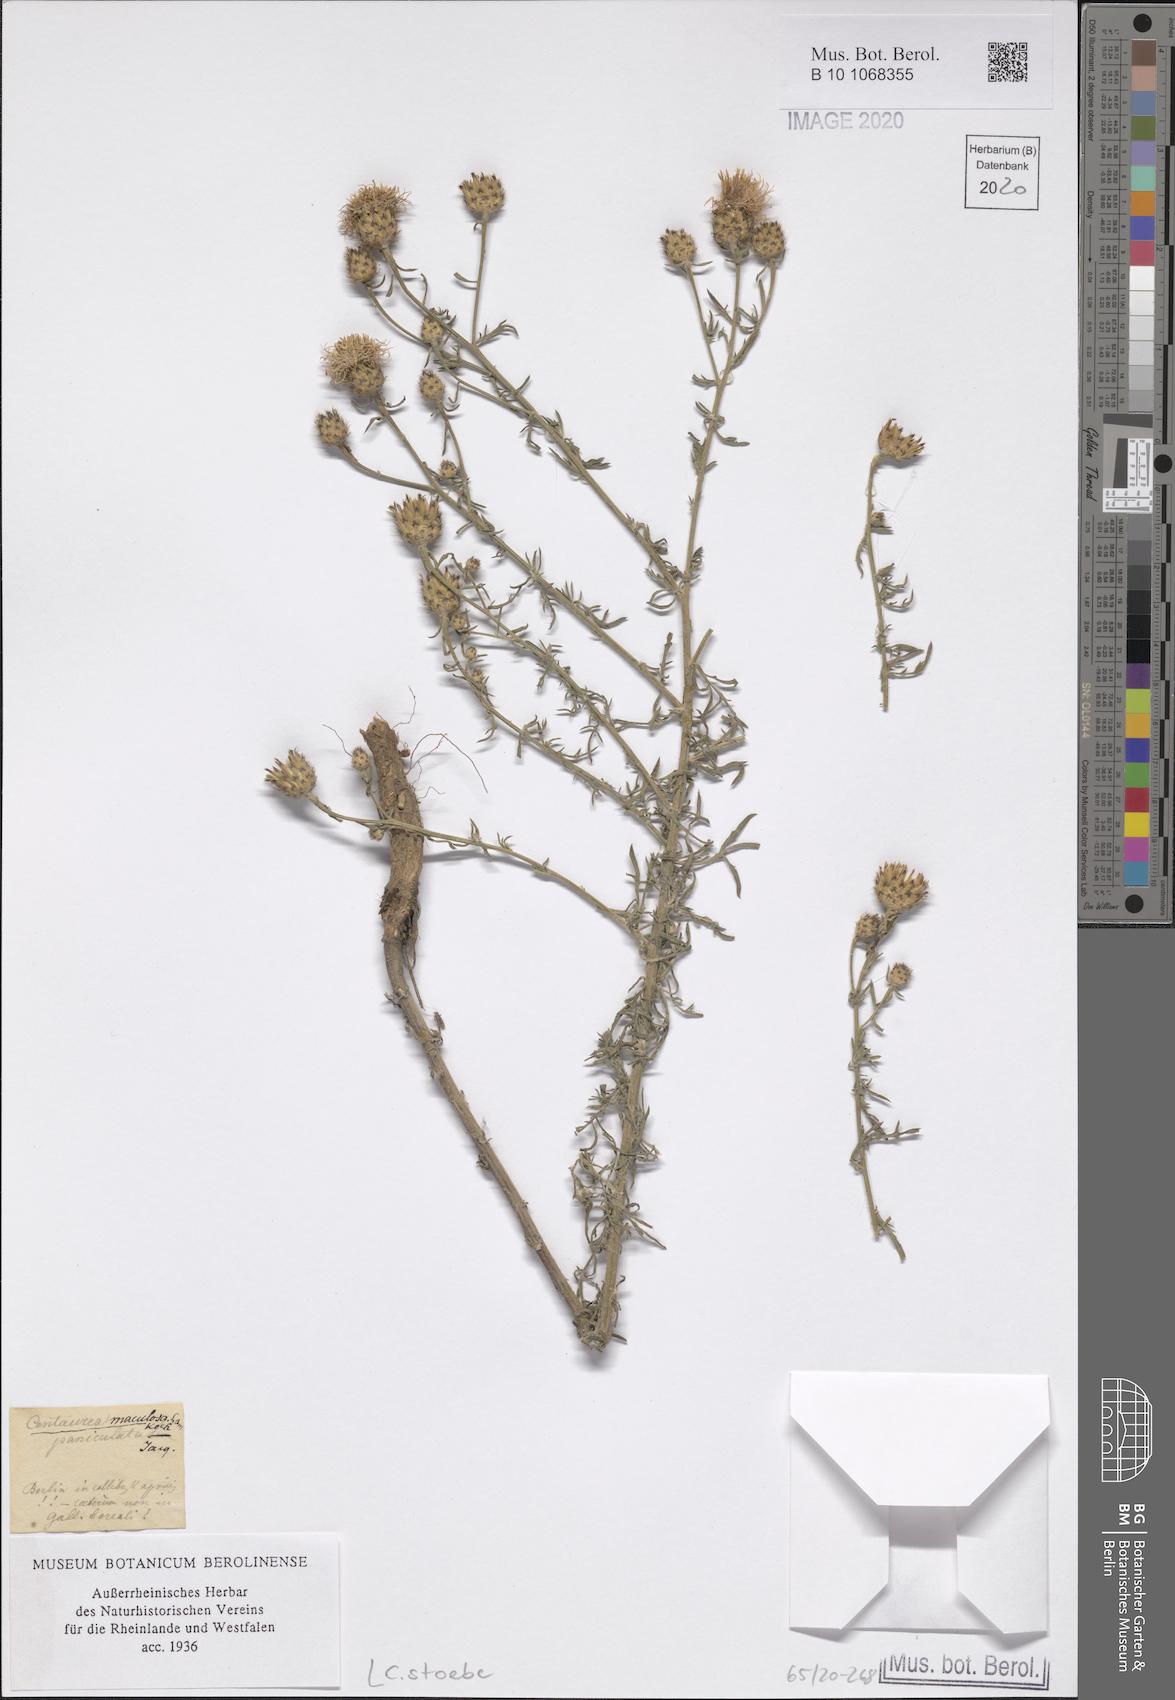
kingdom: Plantae
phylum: Tracheophyta
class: Magnoliopsida
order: Asterales
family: Asteraceae
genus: Centaurea
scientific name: Centaurea stoebe
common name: Spotted knapweed
